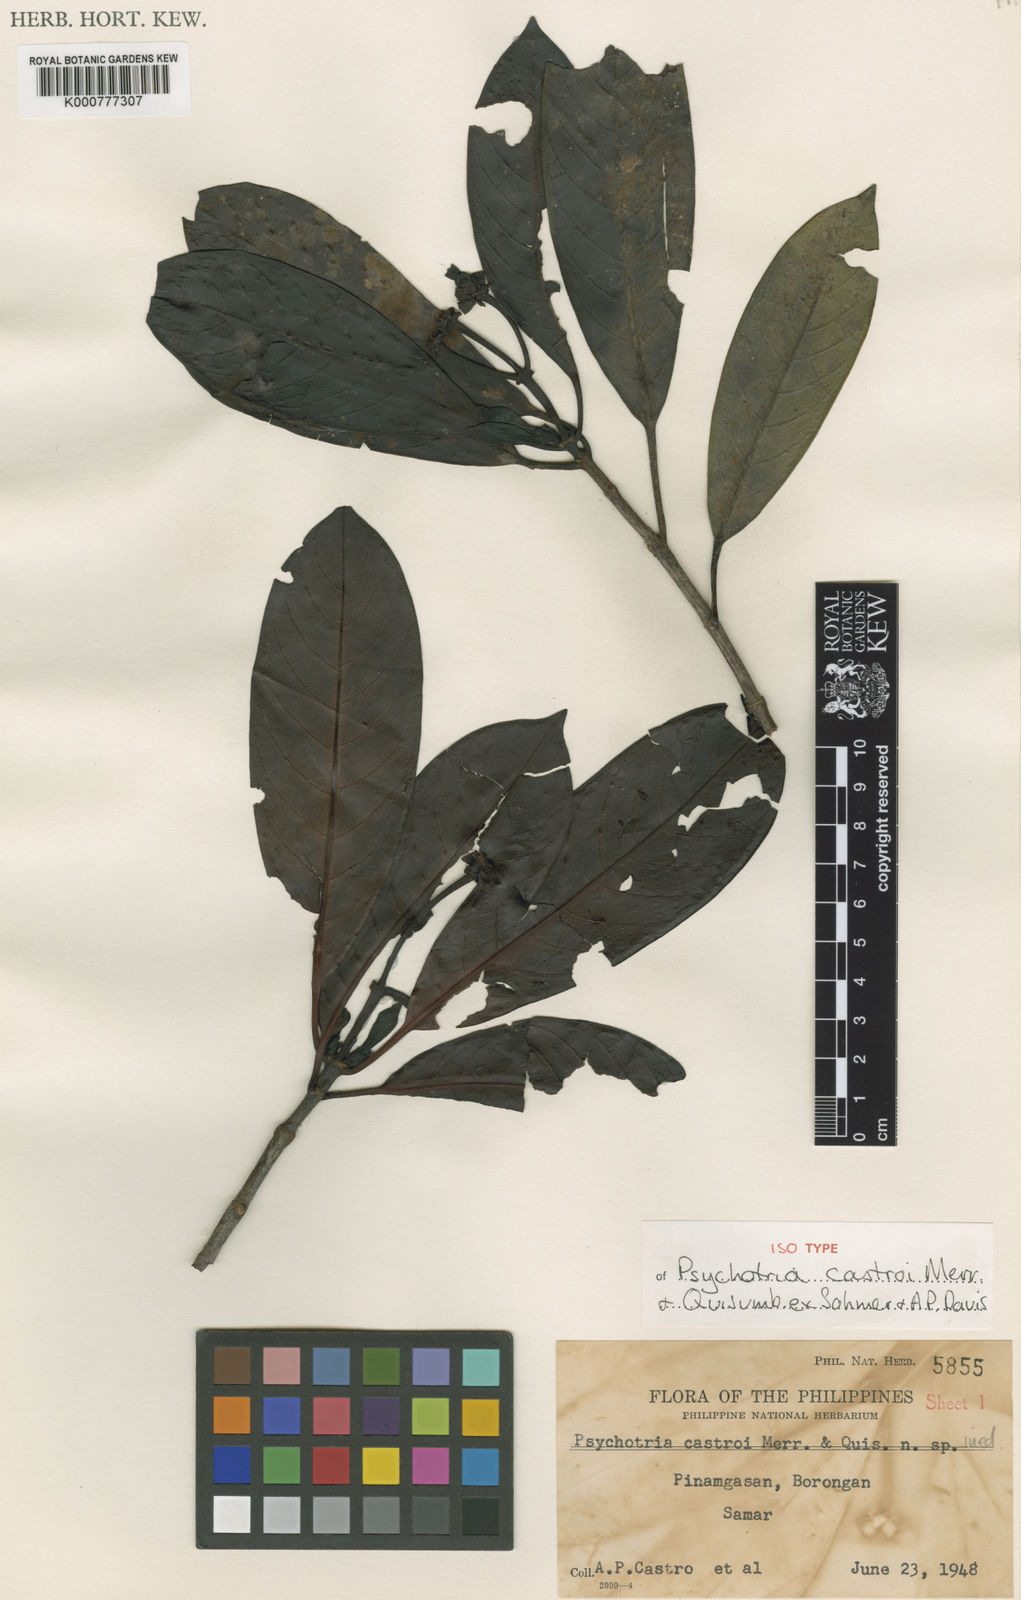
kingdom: Plantae
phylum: Tracheophyta
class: Magnoliopsida
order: Gentianales
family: Rubiaceae
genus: Psychotria
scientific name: Psychotria castroi
